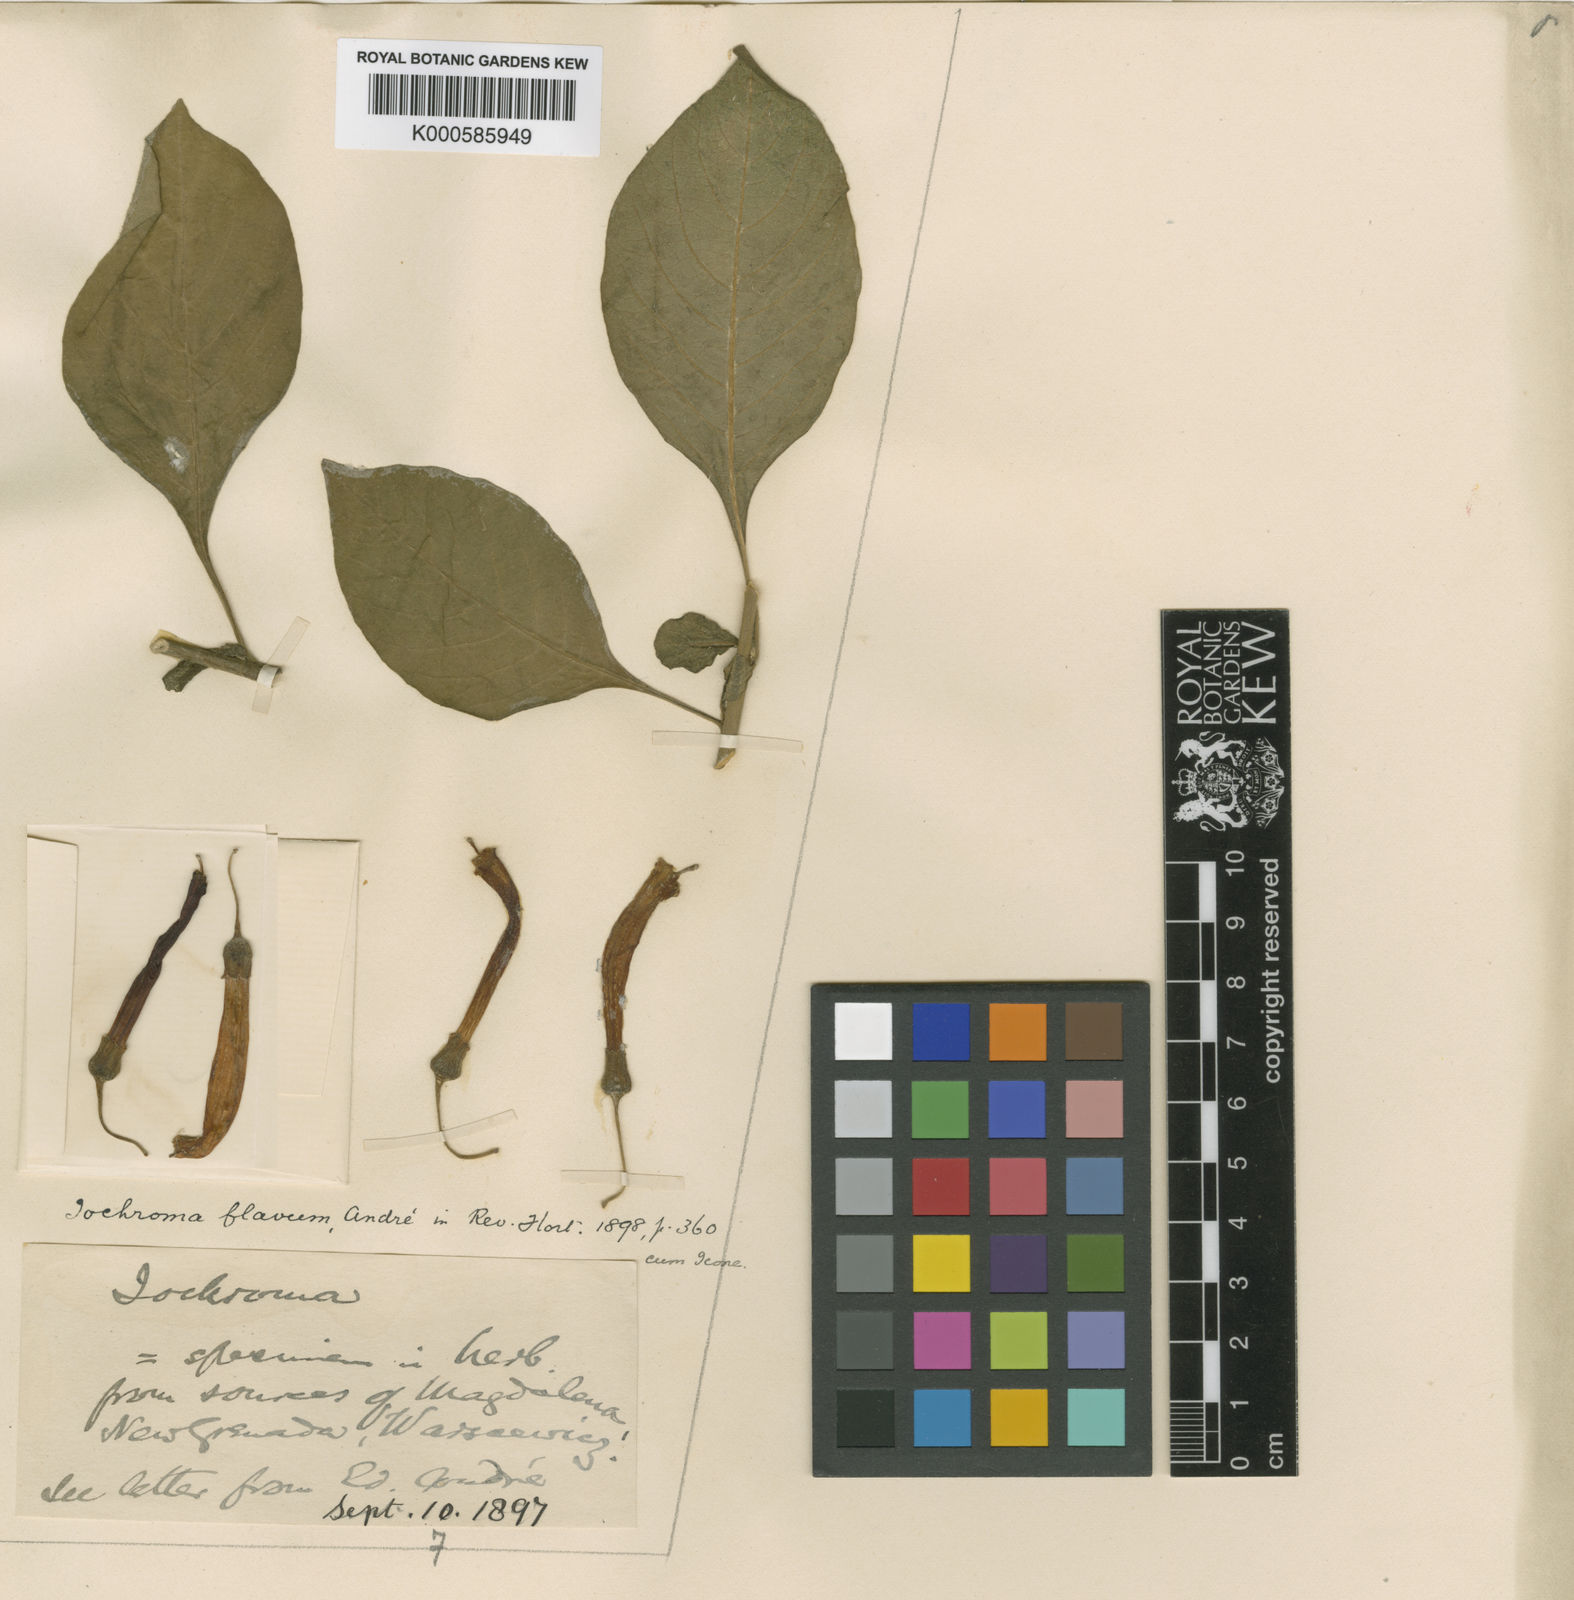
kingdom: Plantae
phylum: Tracheophyta
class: Magnoliopsida
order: Solanales
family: Solanaceae
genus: Iochroma
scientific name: Iochroma
